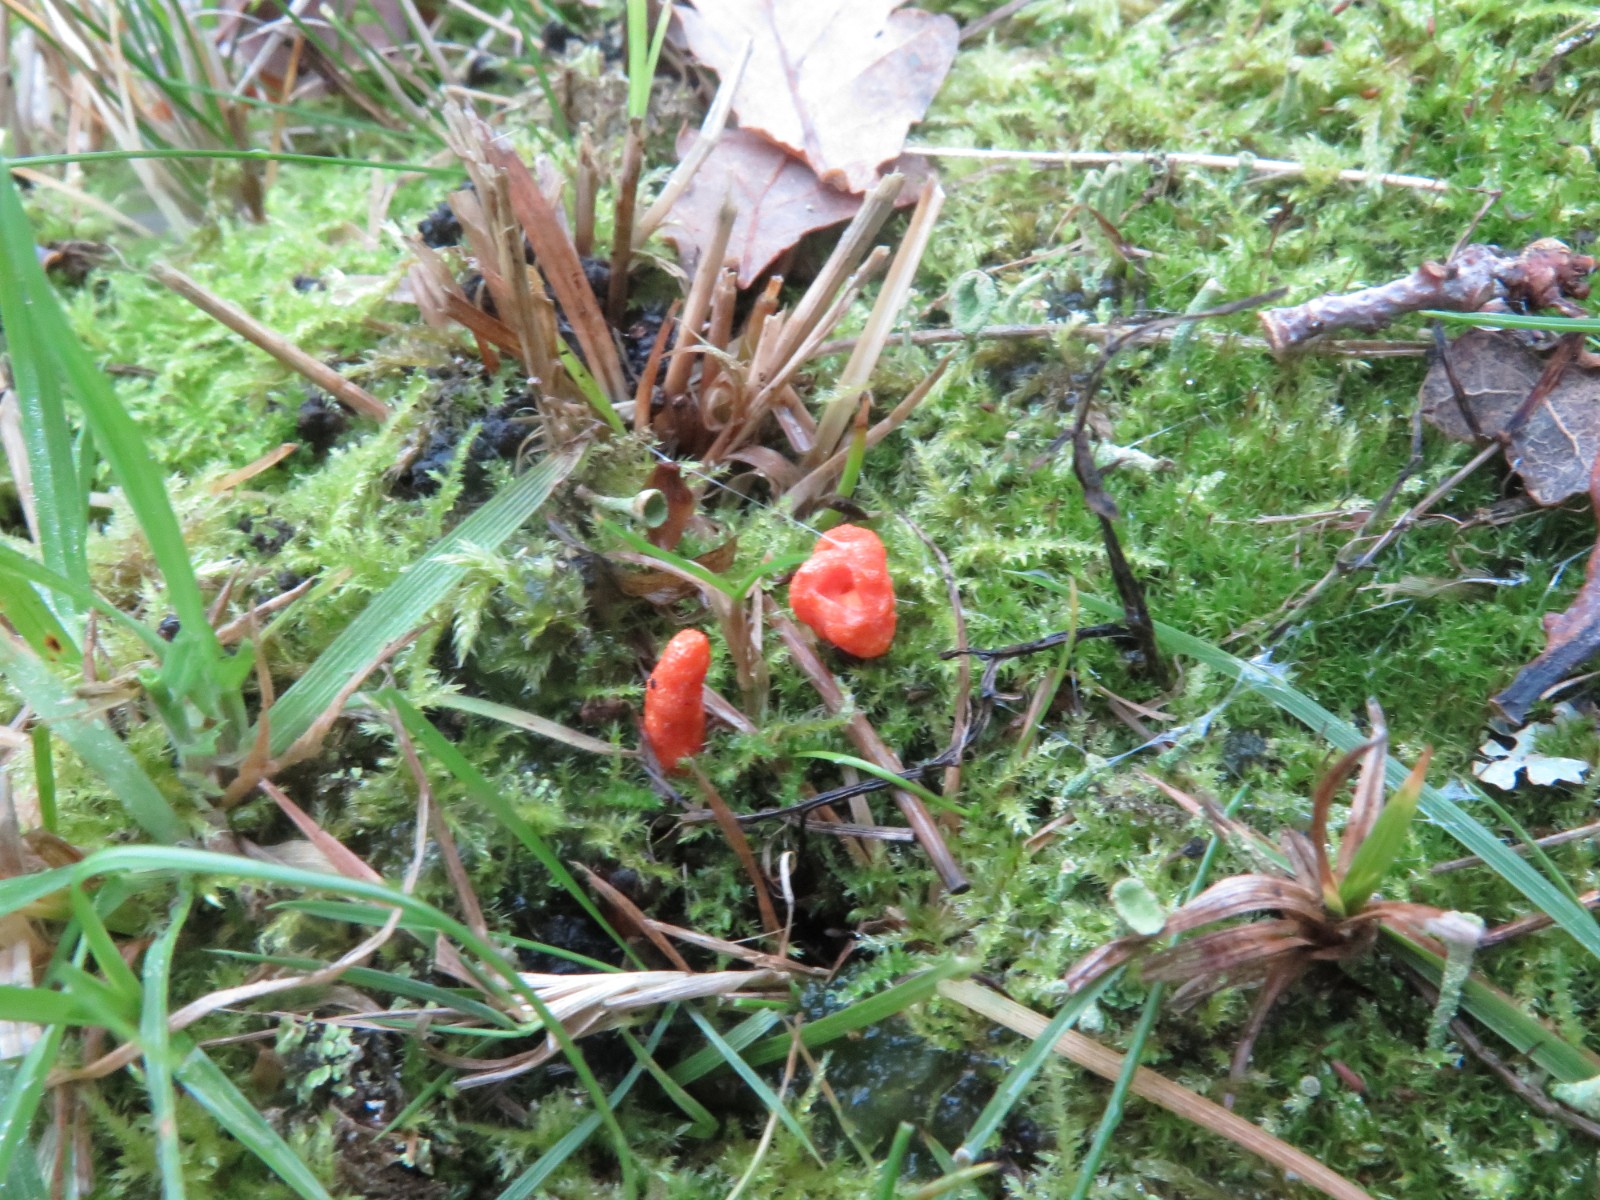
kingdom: Fungi
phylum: Ascomycota
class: Sordariomycetes
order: Hypocreales
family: Cordycipitaceae
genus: Cordyceps
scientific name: Cordyceps militaris
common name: puppe-snyltekølle
